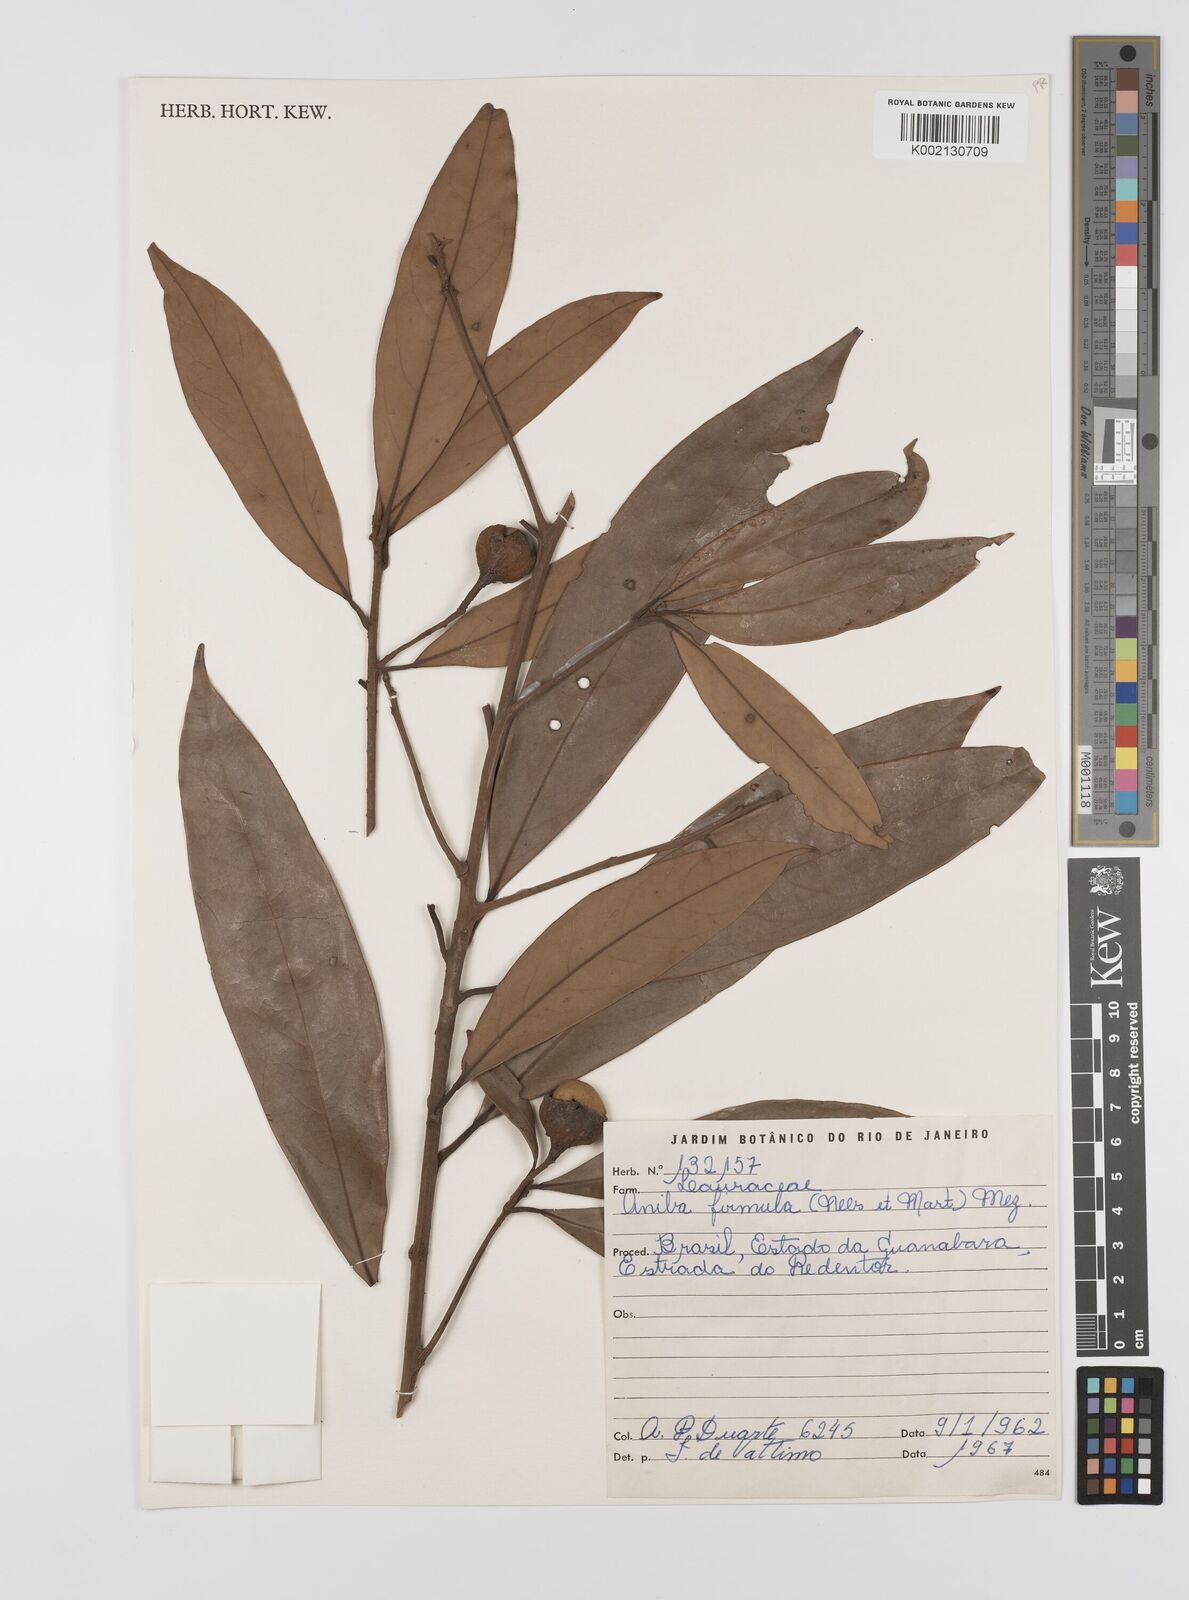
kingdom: Plantae
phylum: Tracheophyta
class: Magnoliopsida
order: Laurales
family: Lauraceae
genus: Aniba
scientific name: Aniba firmula
